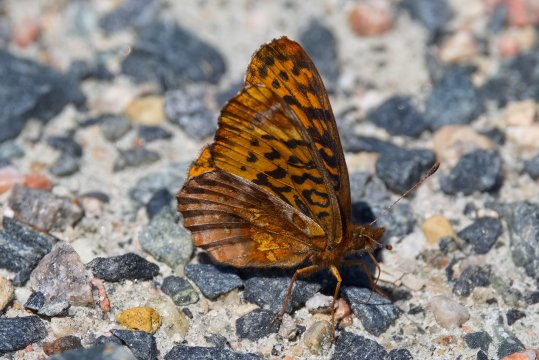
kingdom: Animalia
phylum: Arthropoda
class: Insecta
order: Lepidoptera
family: Nymphalidae
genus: Clossiana
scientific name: Clossiana toddi
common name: Meadow Fritillary
